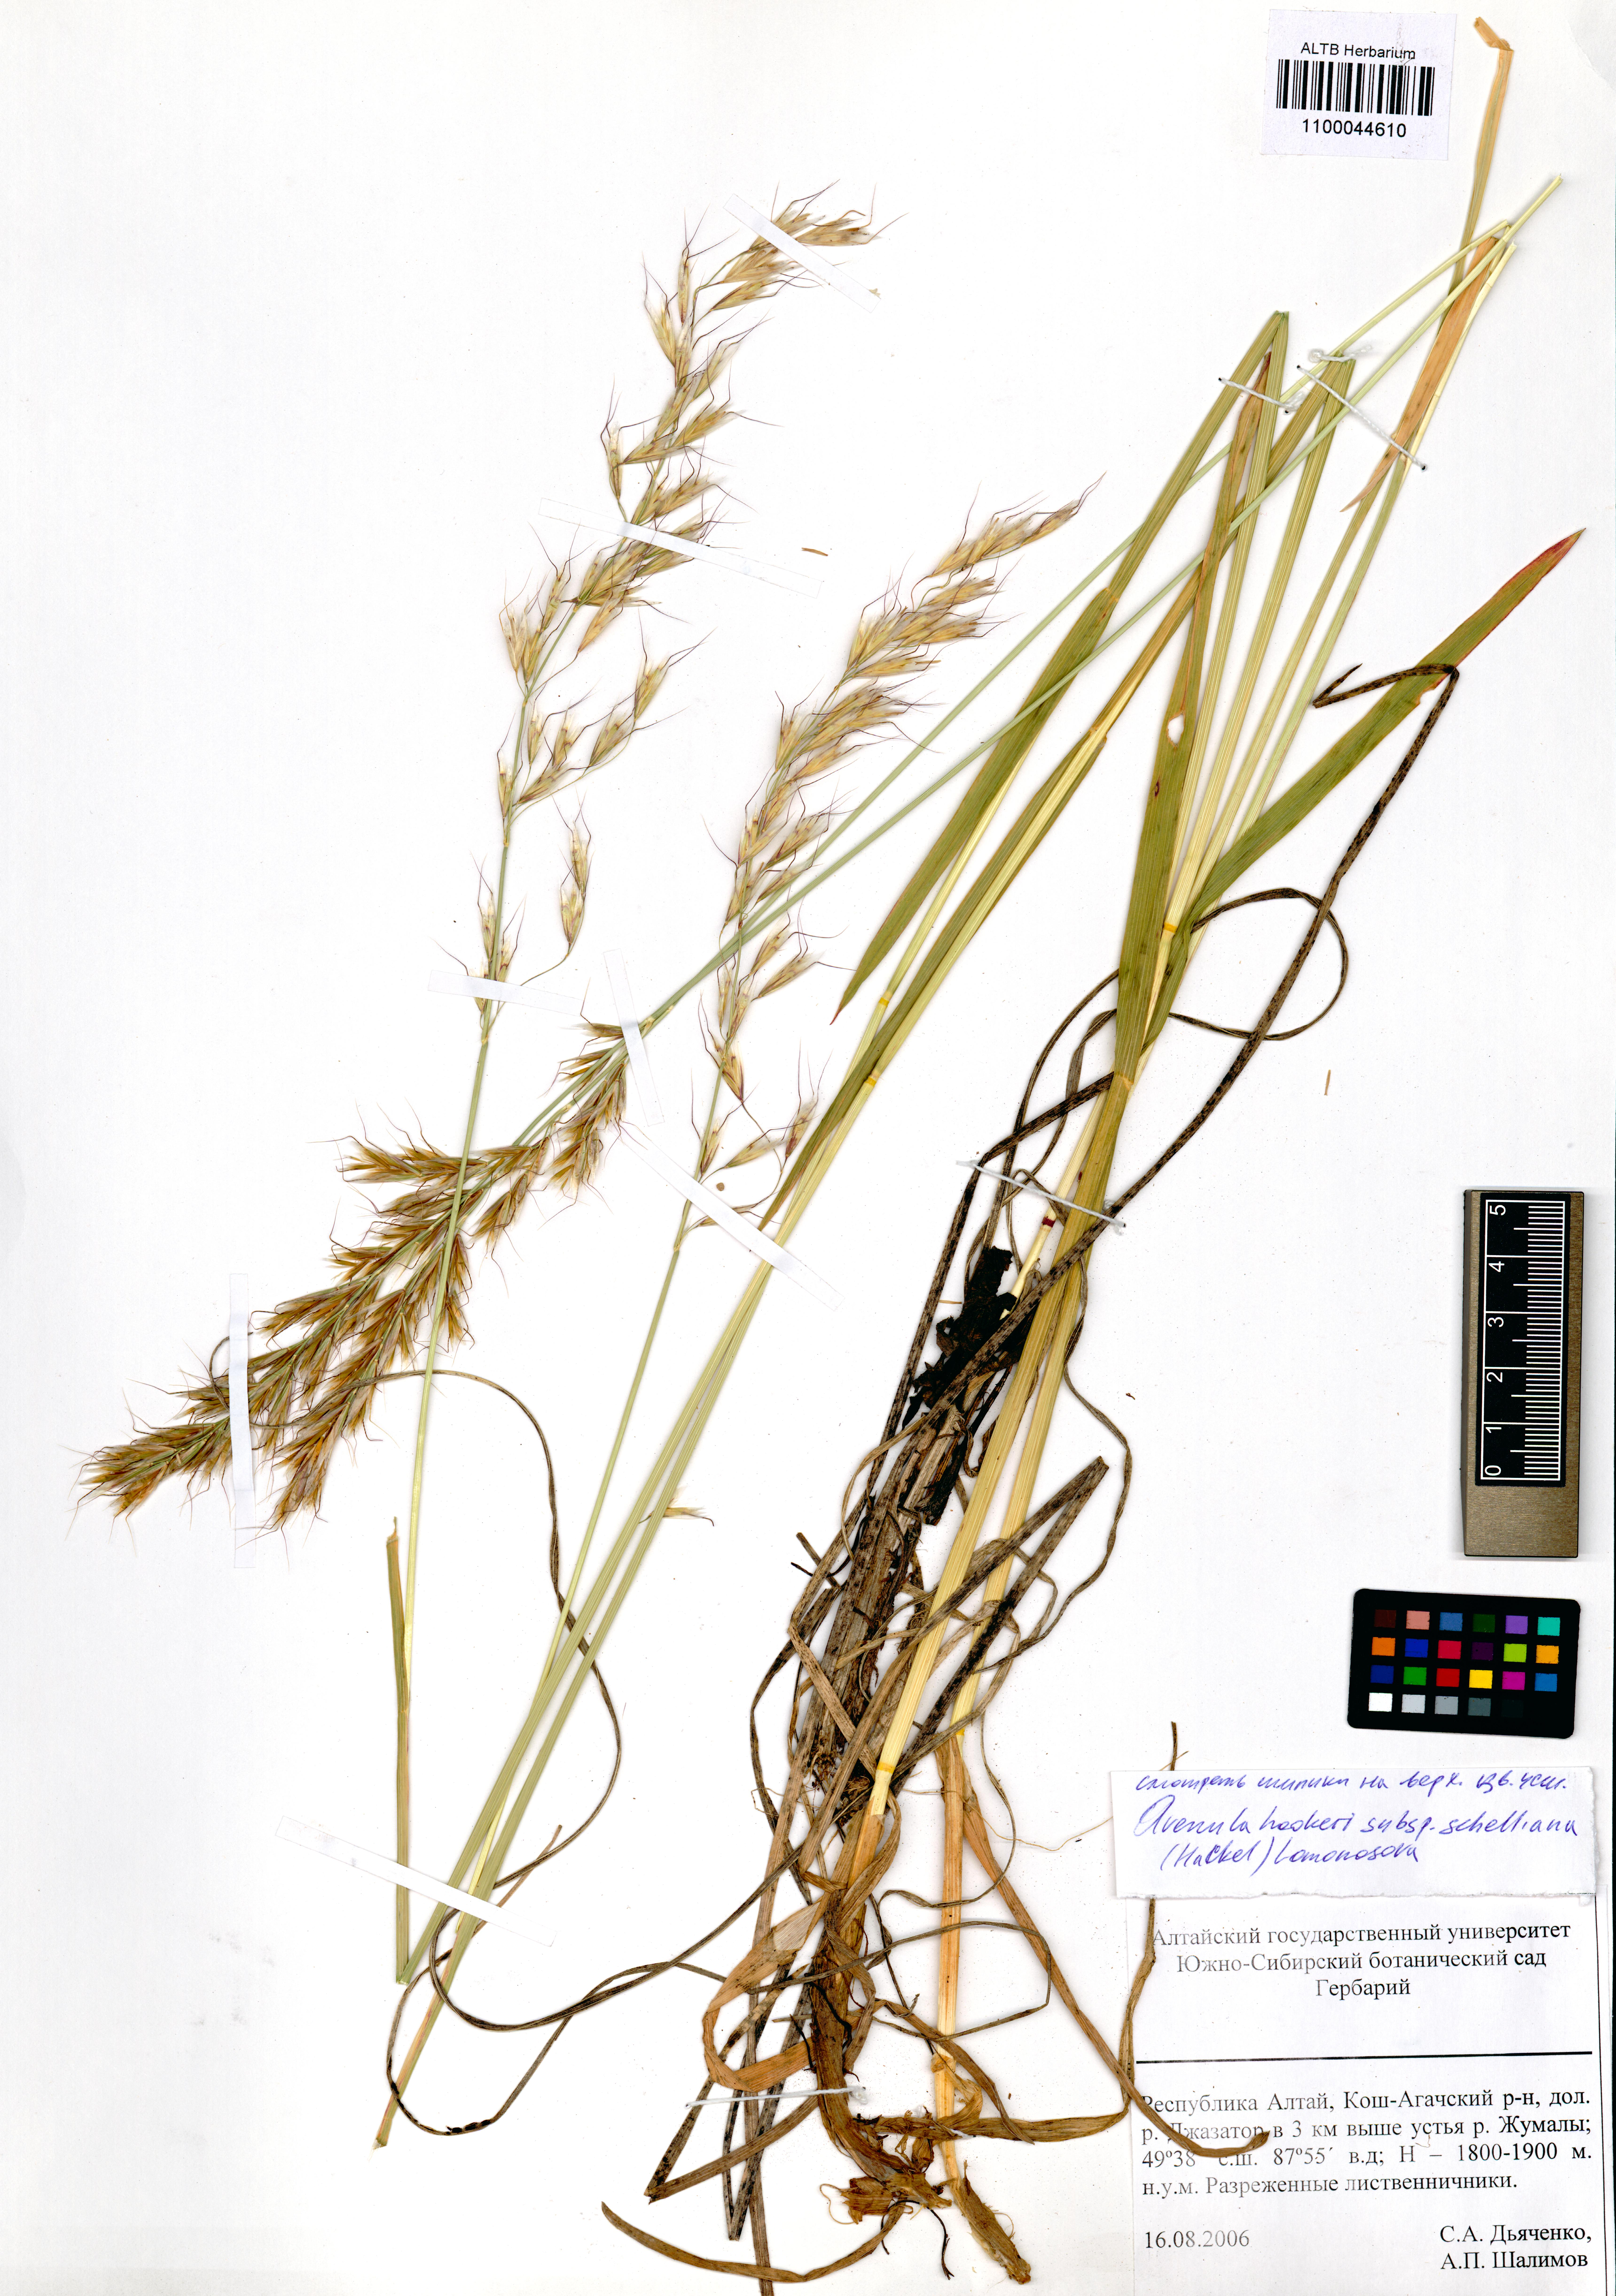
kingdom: Plantae
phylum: Tracheophyta
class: Liliopsida
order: Poales
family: Poaceae
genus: Helictochloa
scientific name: Helictochloa hookeri
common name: Hooker's alpine oatgrass
